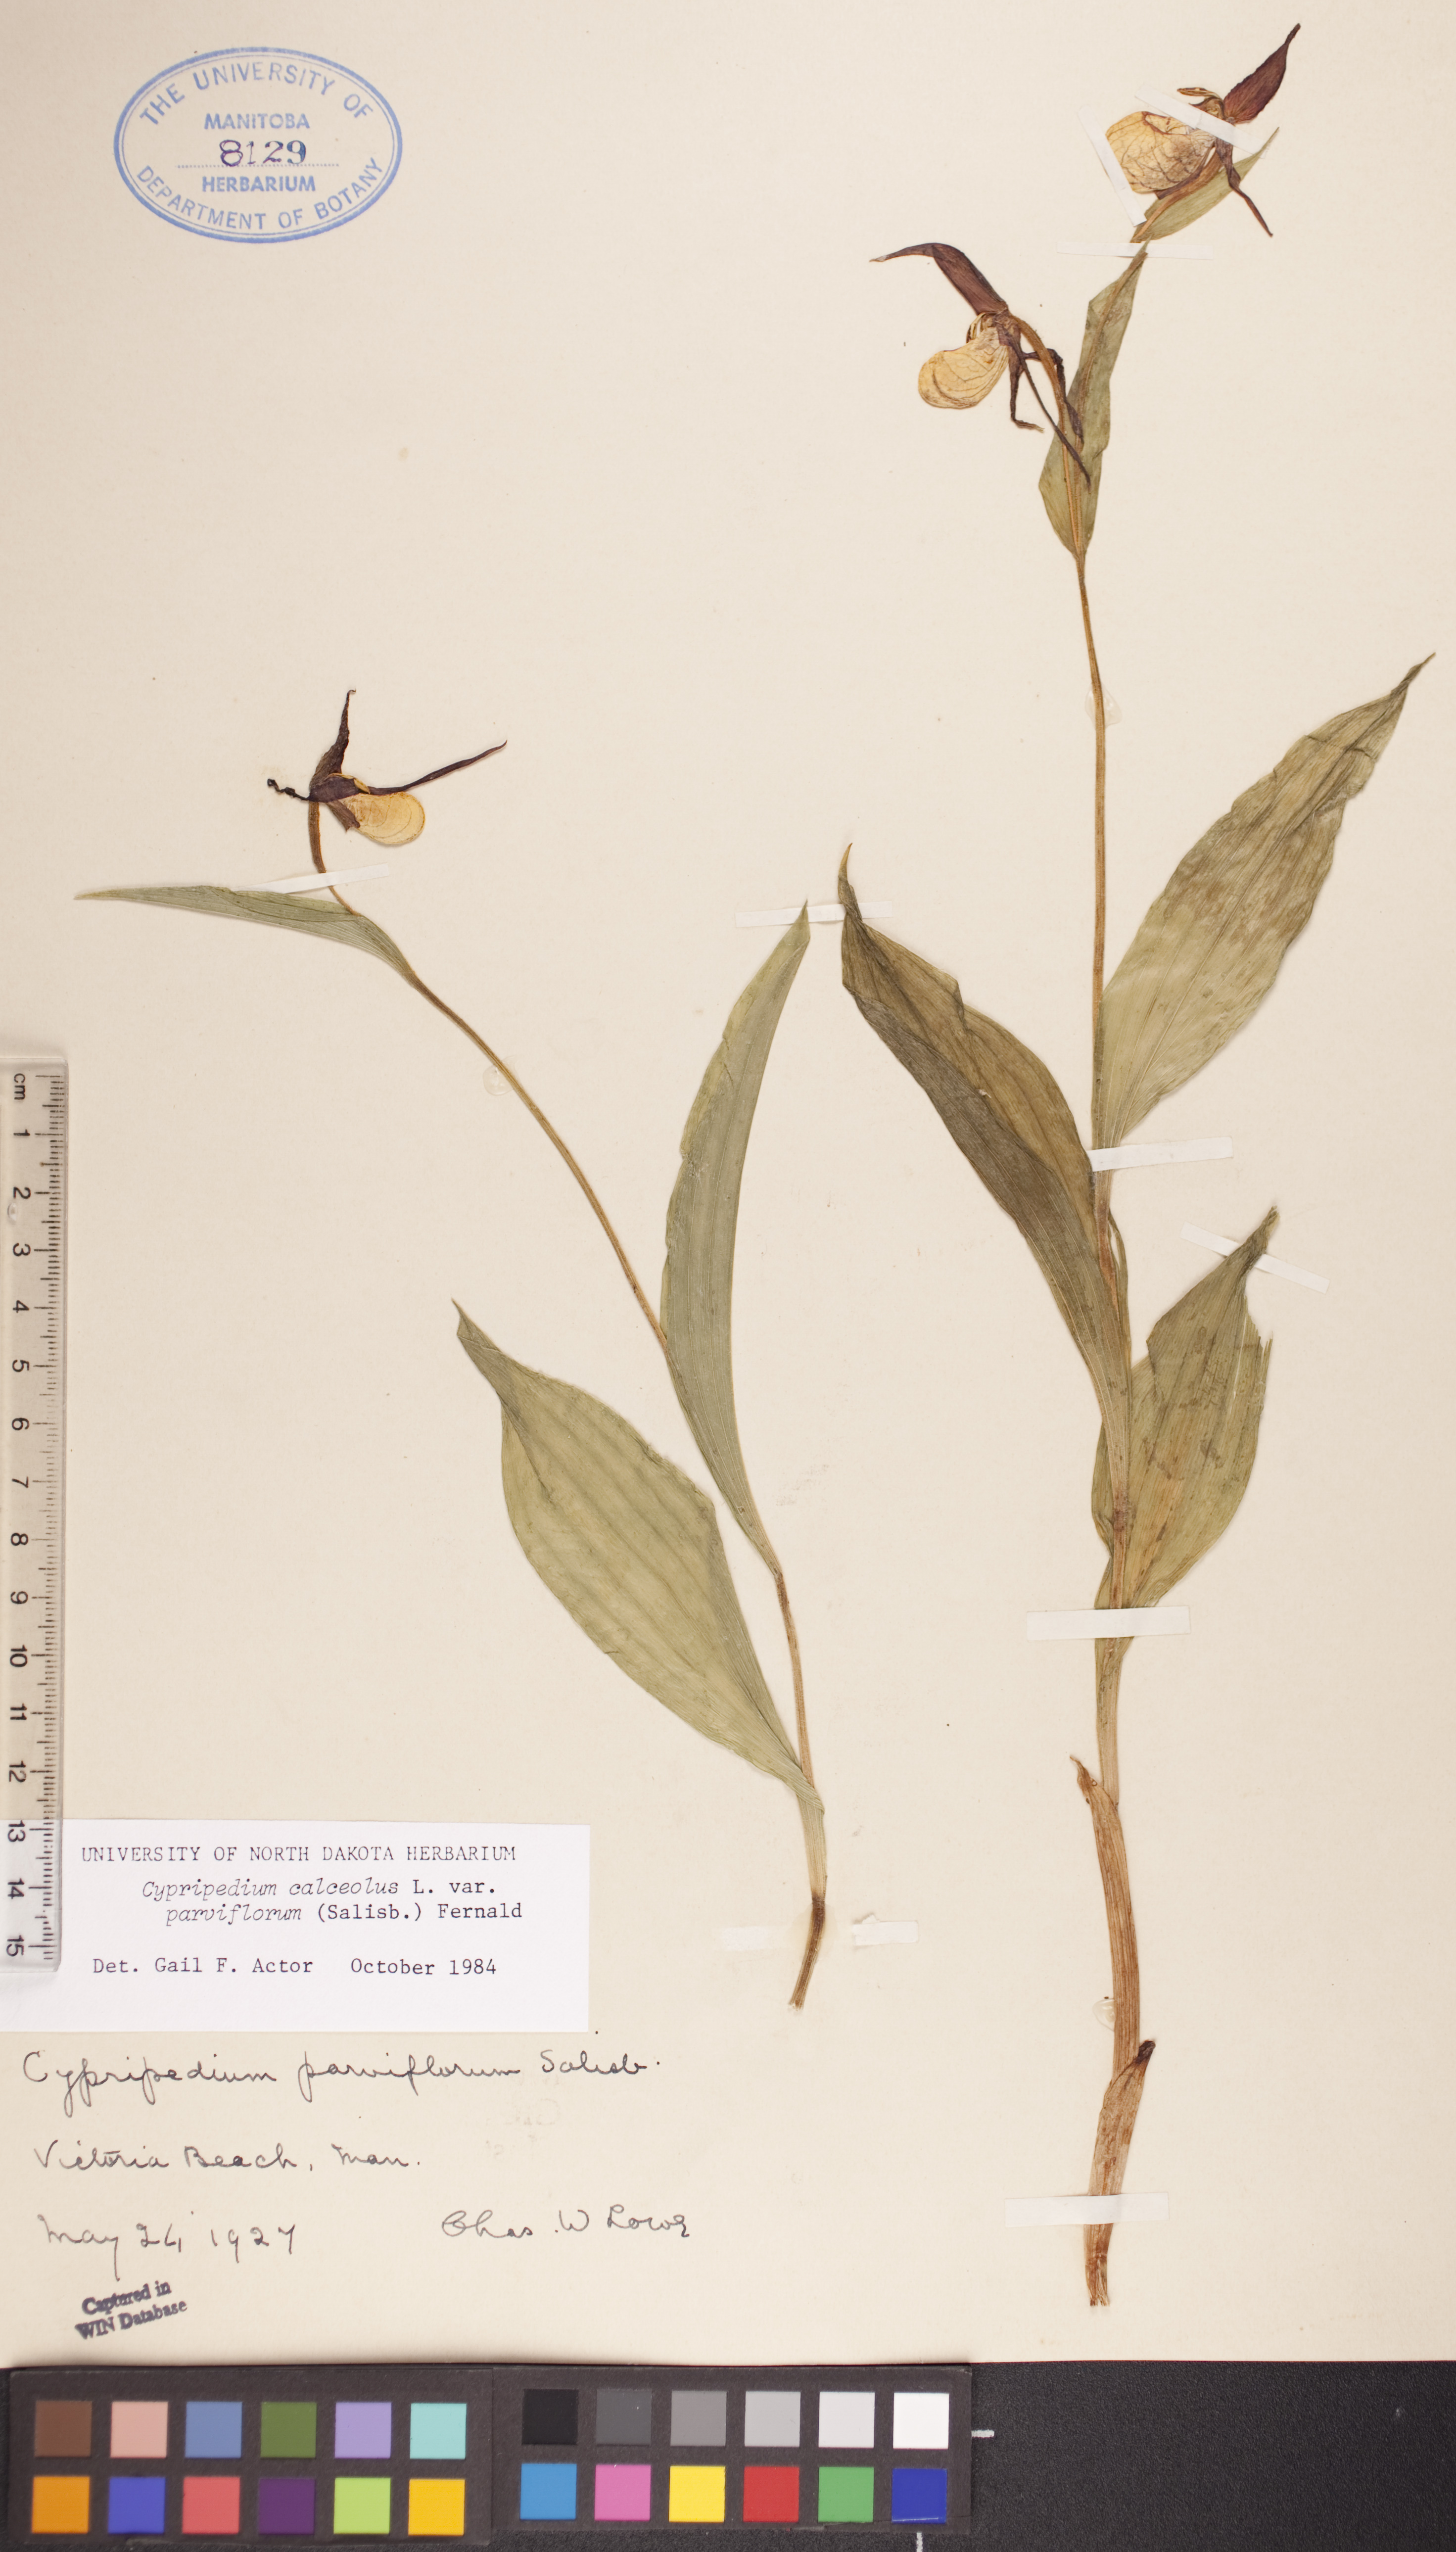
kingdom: Plantae
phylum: Tracheophyta
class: Liliopsida
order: Asparagales
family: Orchidaceae
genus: Cypripedium
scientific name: Cypripedium parviflorum
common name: American yellow lady's-slipper
